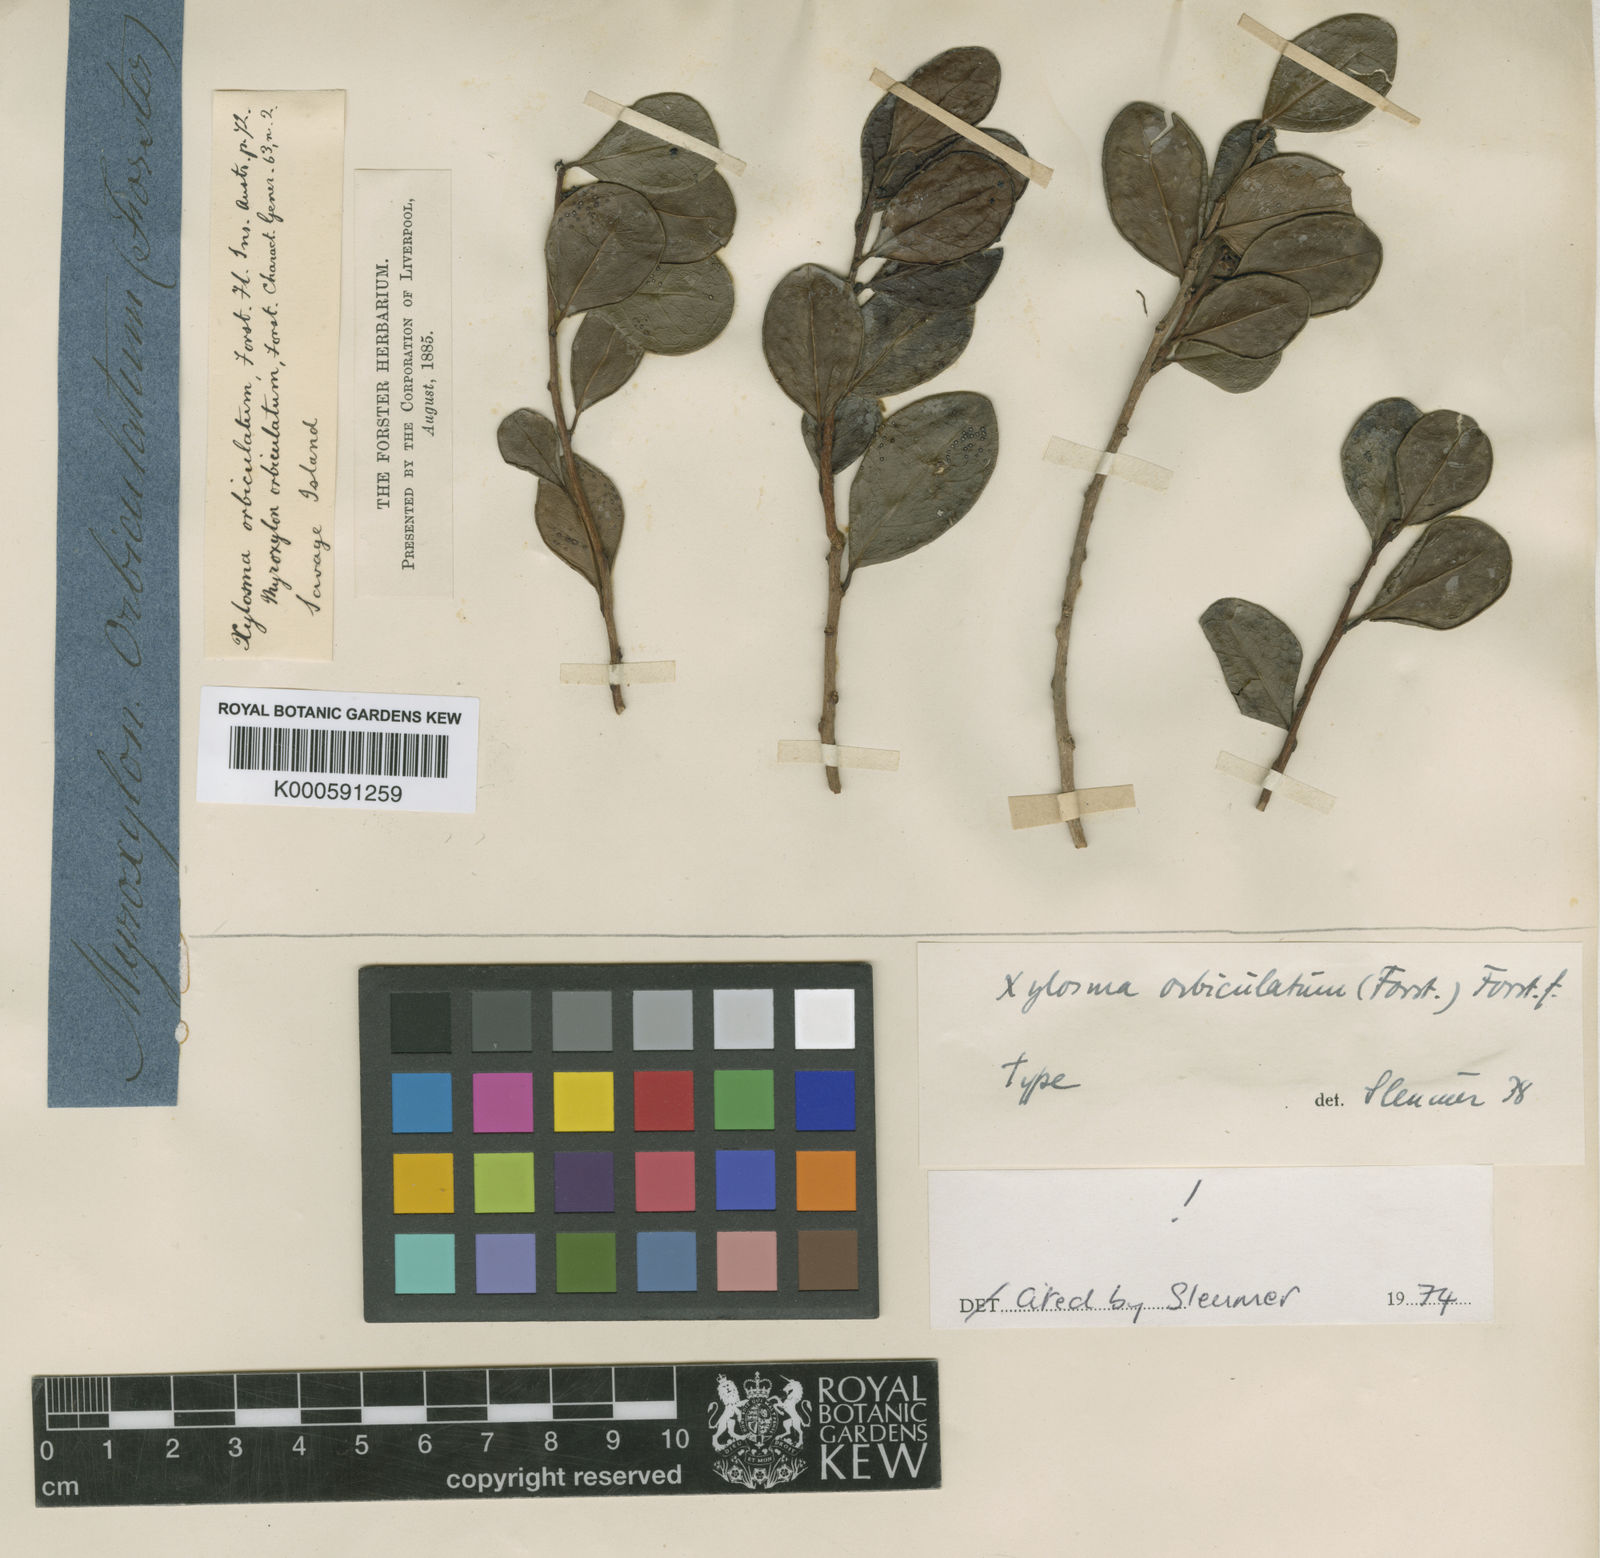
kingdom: Plantae
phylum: Tracheophyta
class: Magnoliopsida
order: Malpighiales
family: Salicaceae
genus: Xylosma
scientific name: Xylosma orbiculata
